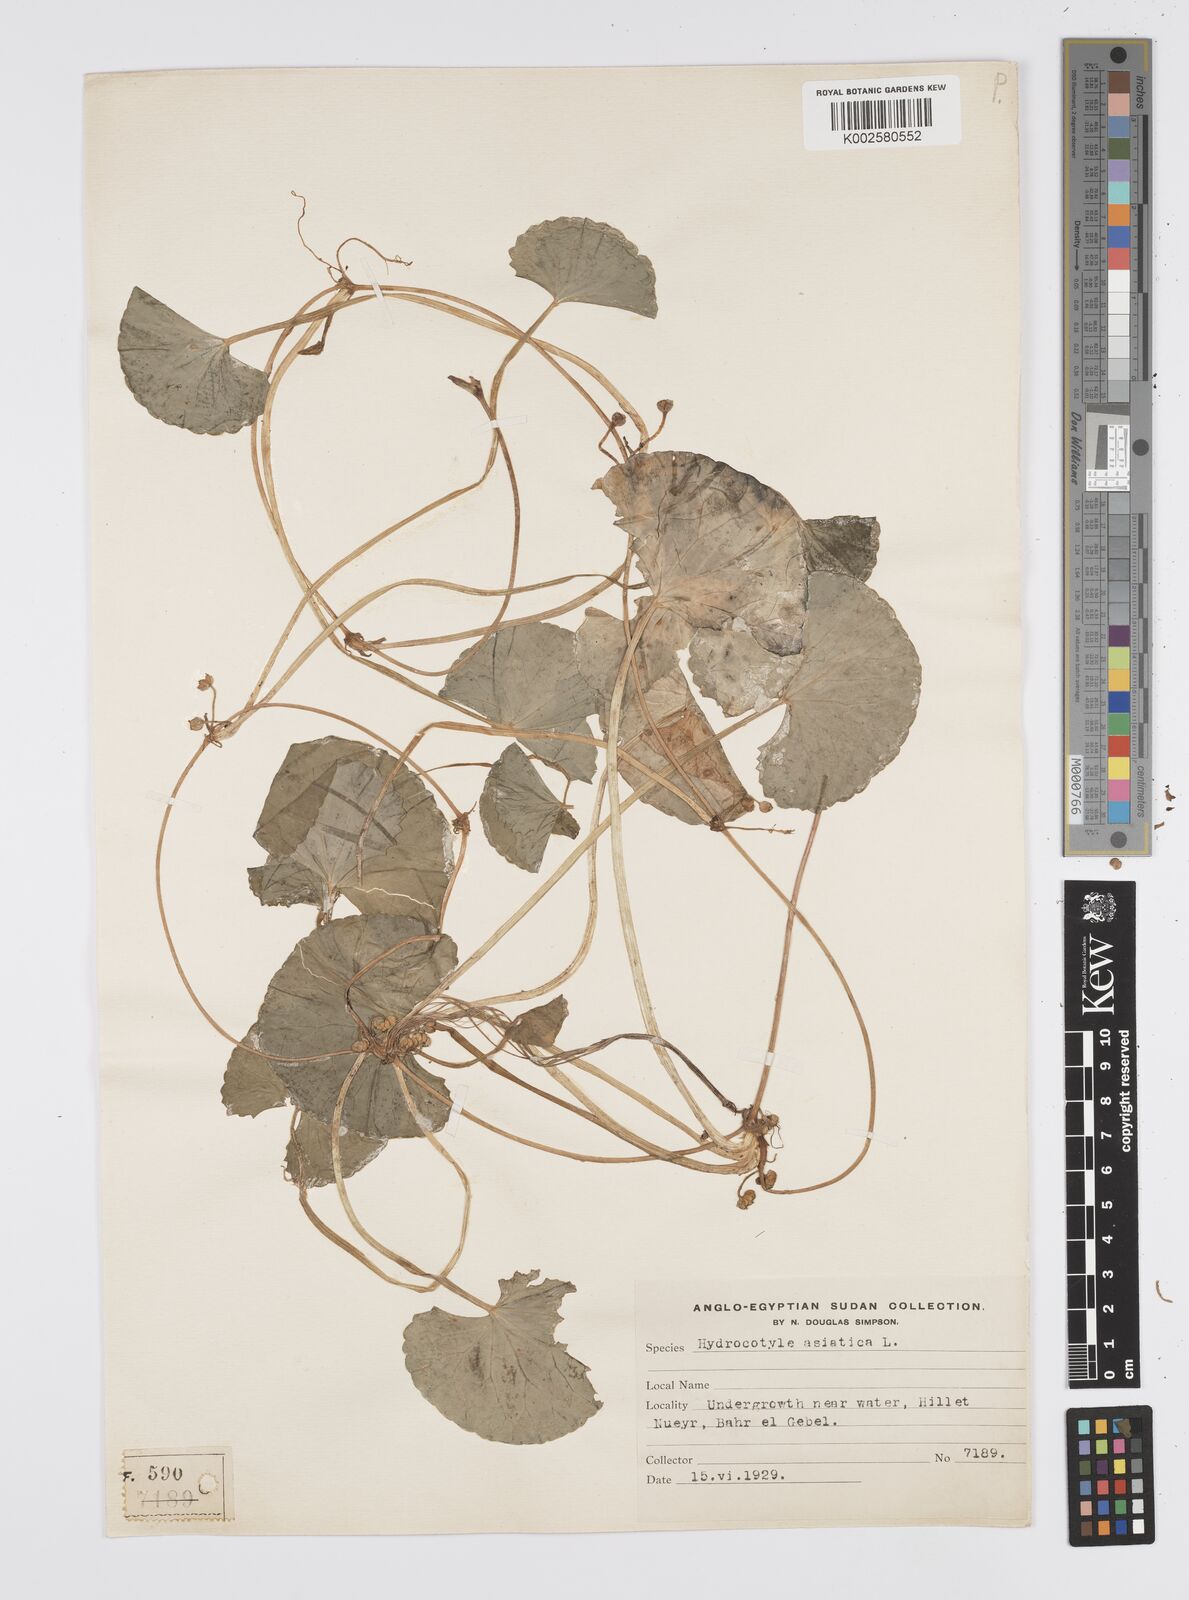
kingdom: Plantae
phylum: Tracheophyta
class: Magnoliopsida
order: Apiales
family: Apiaceae
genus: Centella
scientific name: Centella asiatica
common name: Spadeleaf
